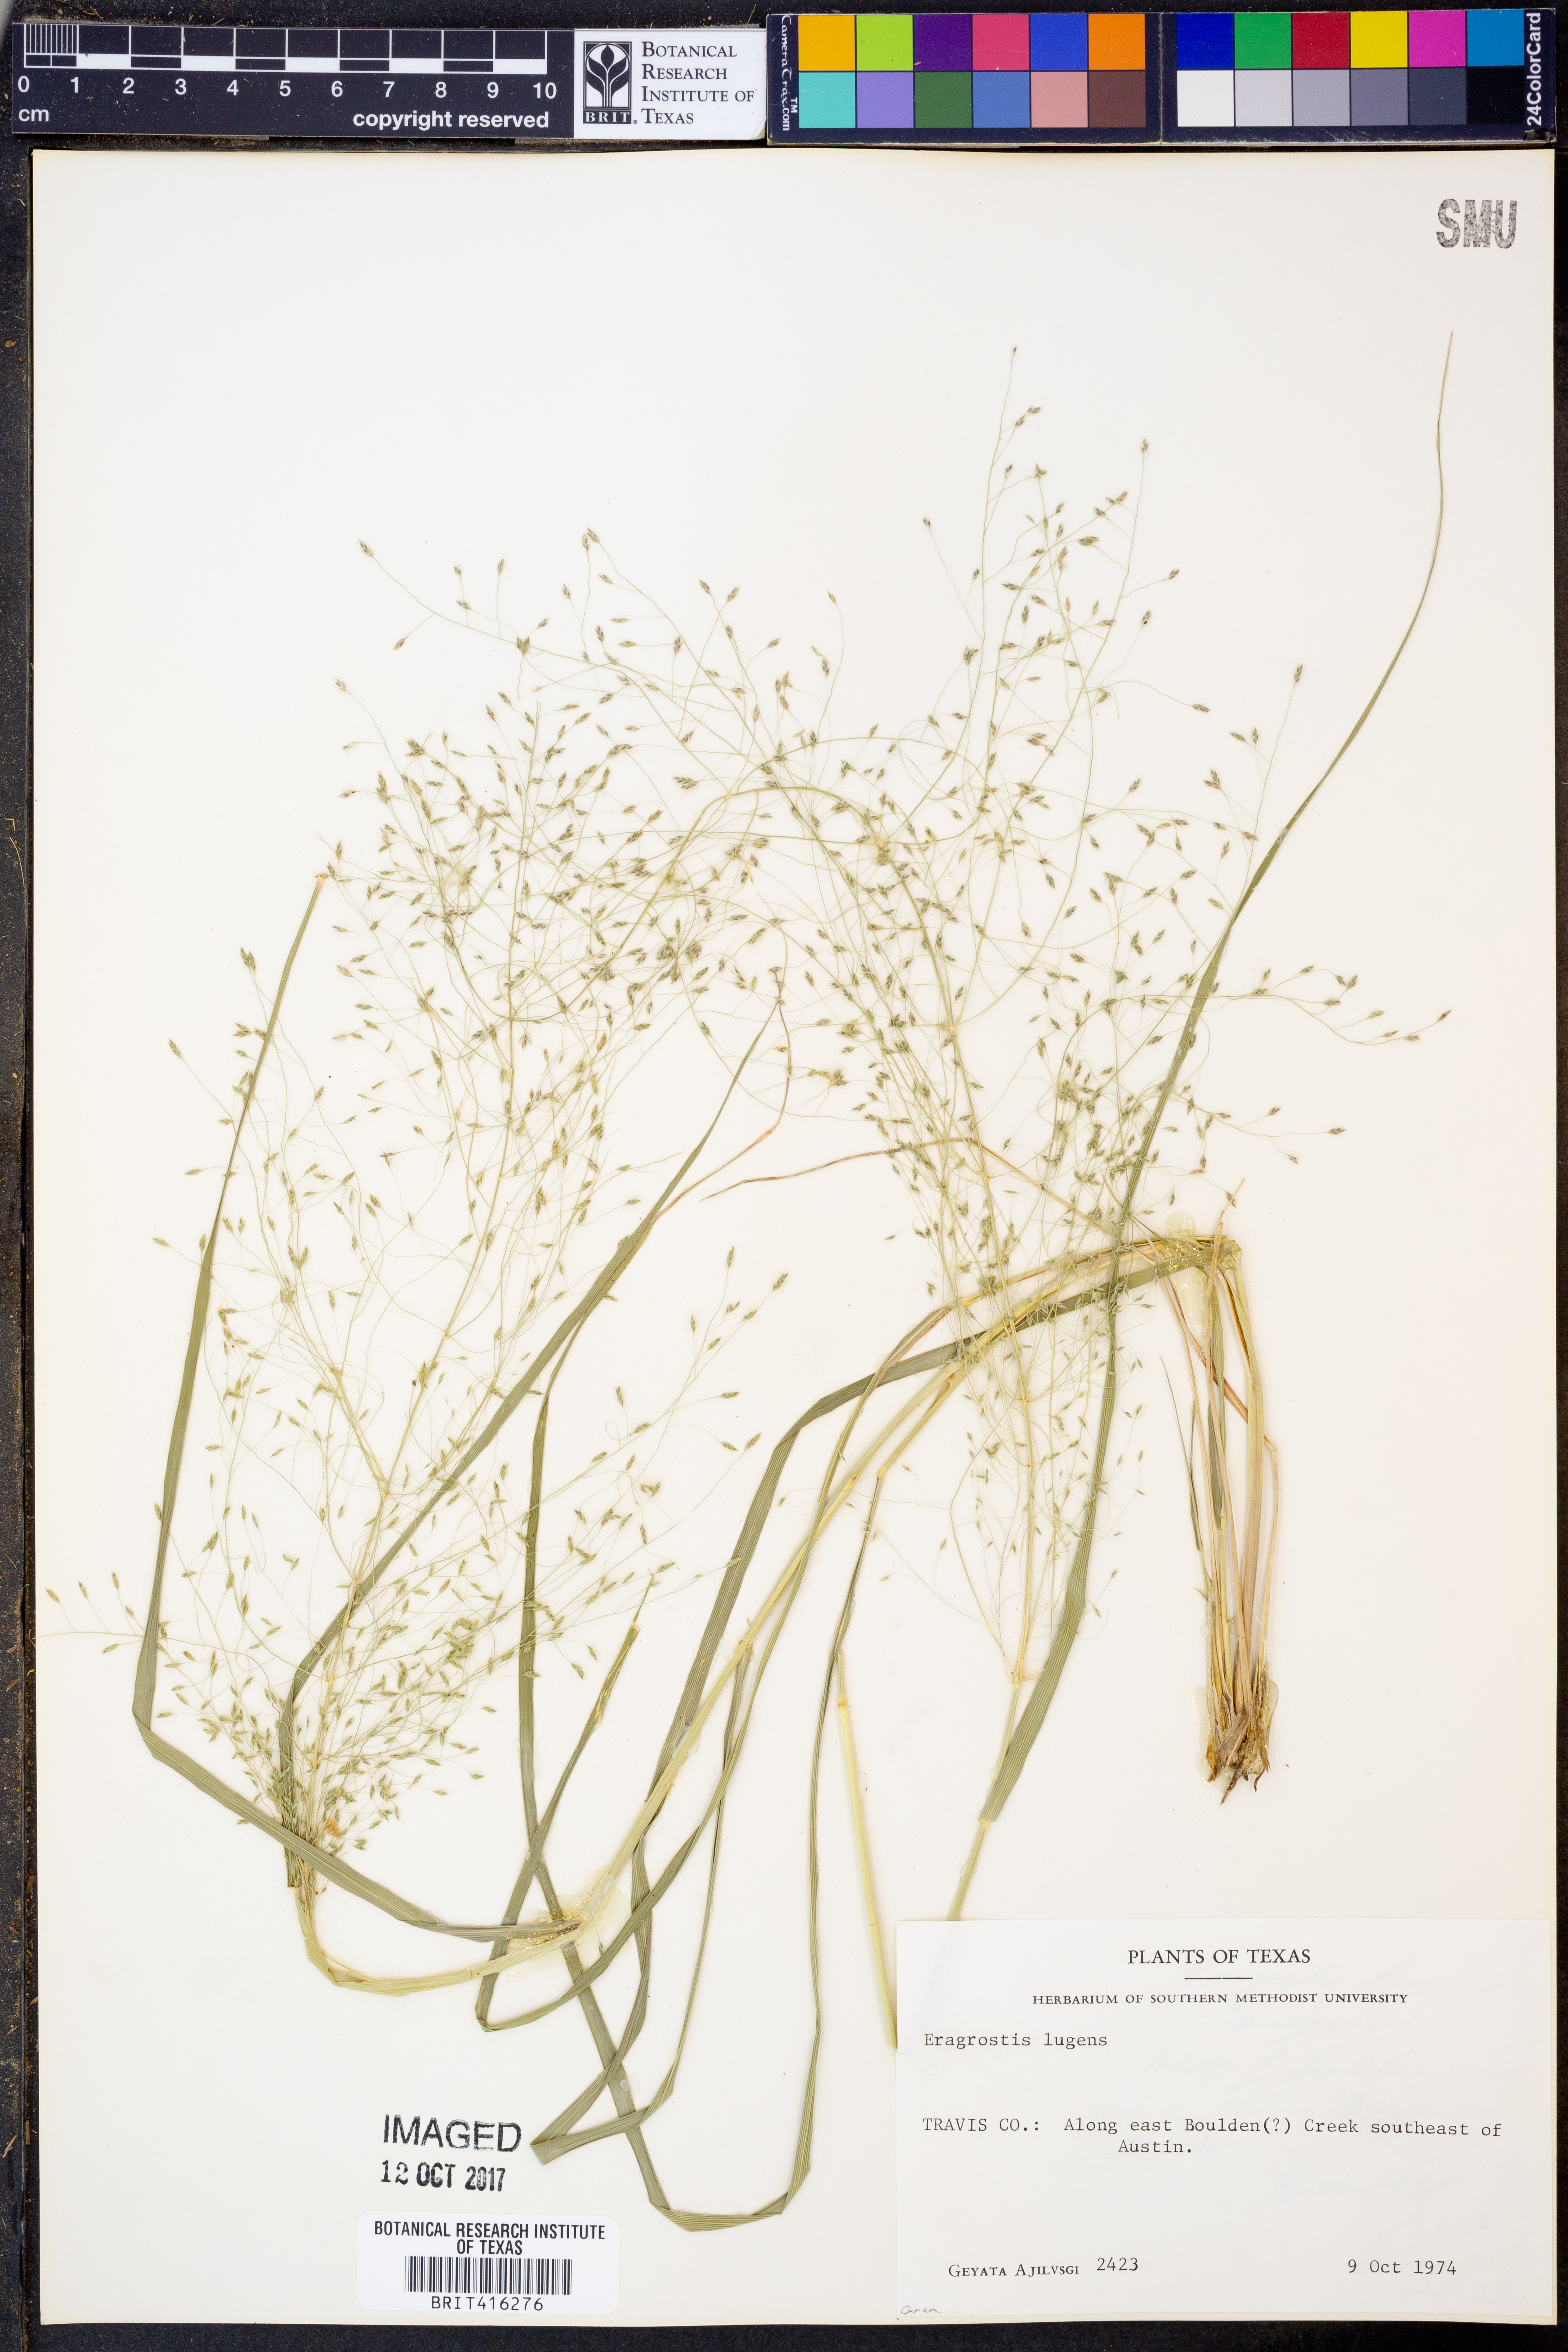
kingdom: Plantae
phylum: Tracheophyta
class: Liliopsida
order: Poales
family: Poaceae
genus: Eragrostis
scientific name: Eragrostis capillaris
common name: Hair-like lovegrass
